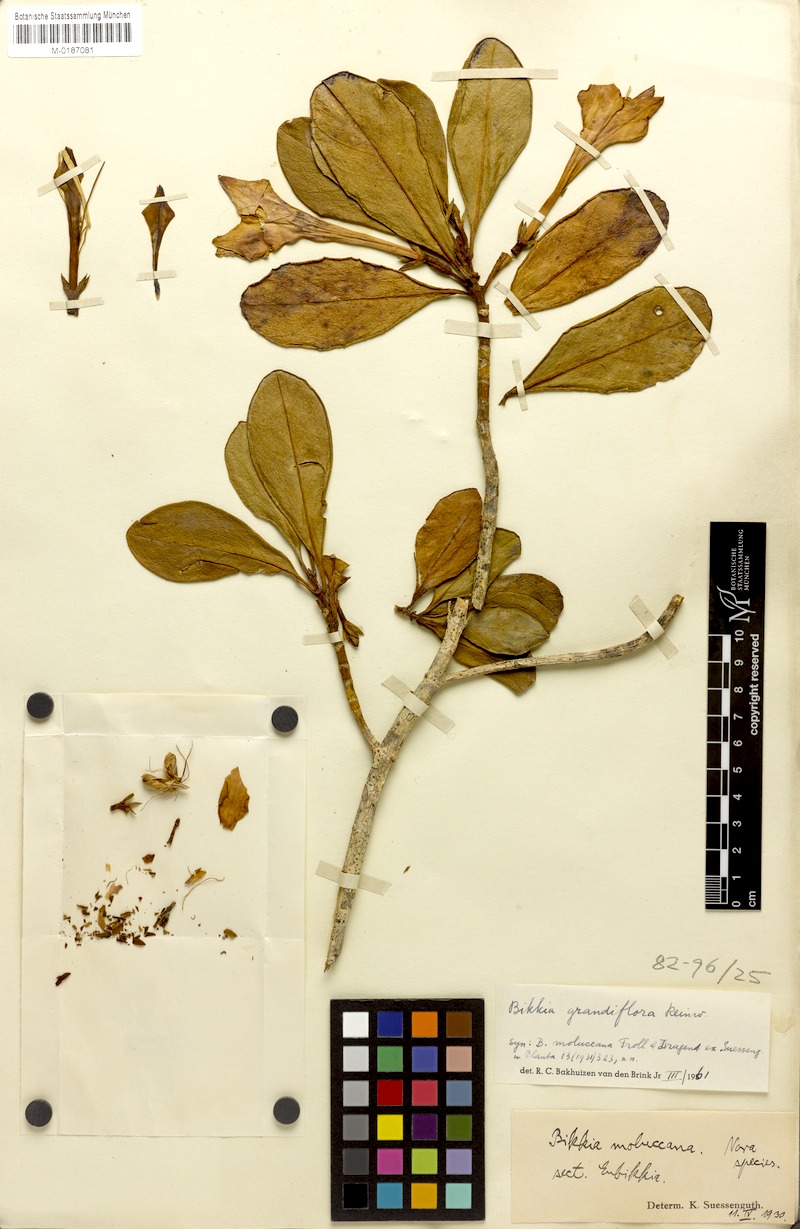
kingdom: Plantae
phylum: Tracheophyta
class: Magnoliopsida
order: Gentianales
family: Rubiaceae
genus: Bikkia
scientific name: Bikkia moluccana
